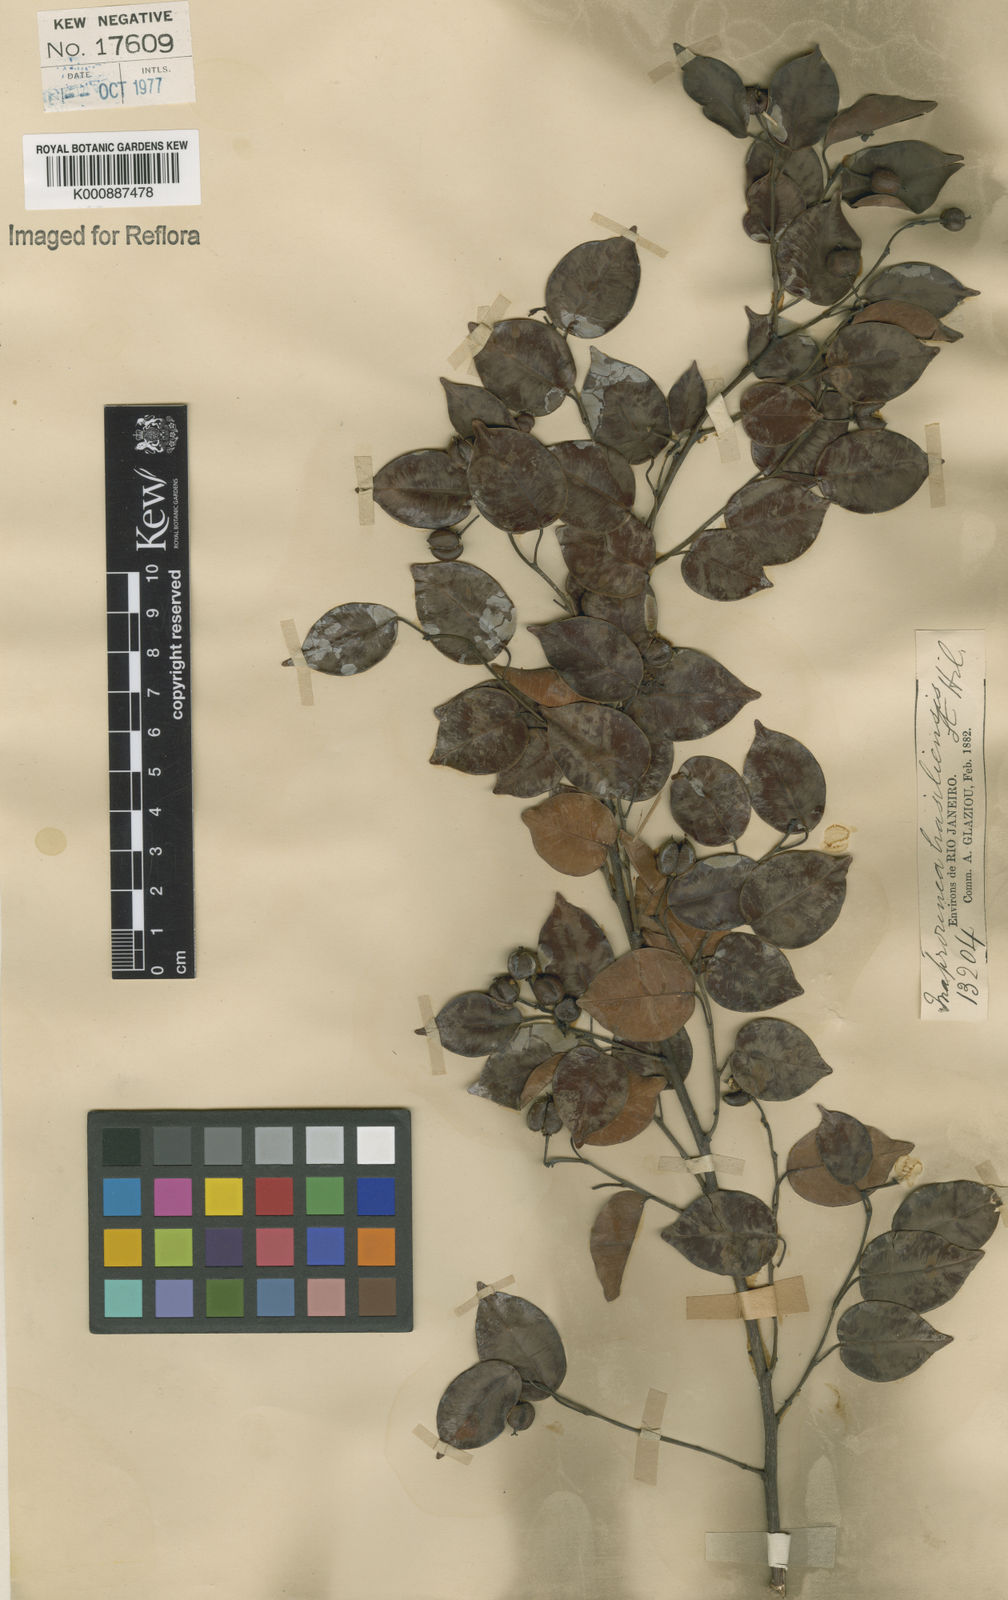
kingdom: Plantae
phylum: Tracheophyta
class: Magnoliopsida
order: Malpighiales
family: Euphorbiaceae
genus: Maprounea
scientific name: Maprounea brasiliensis
